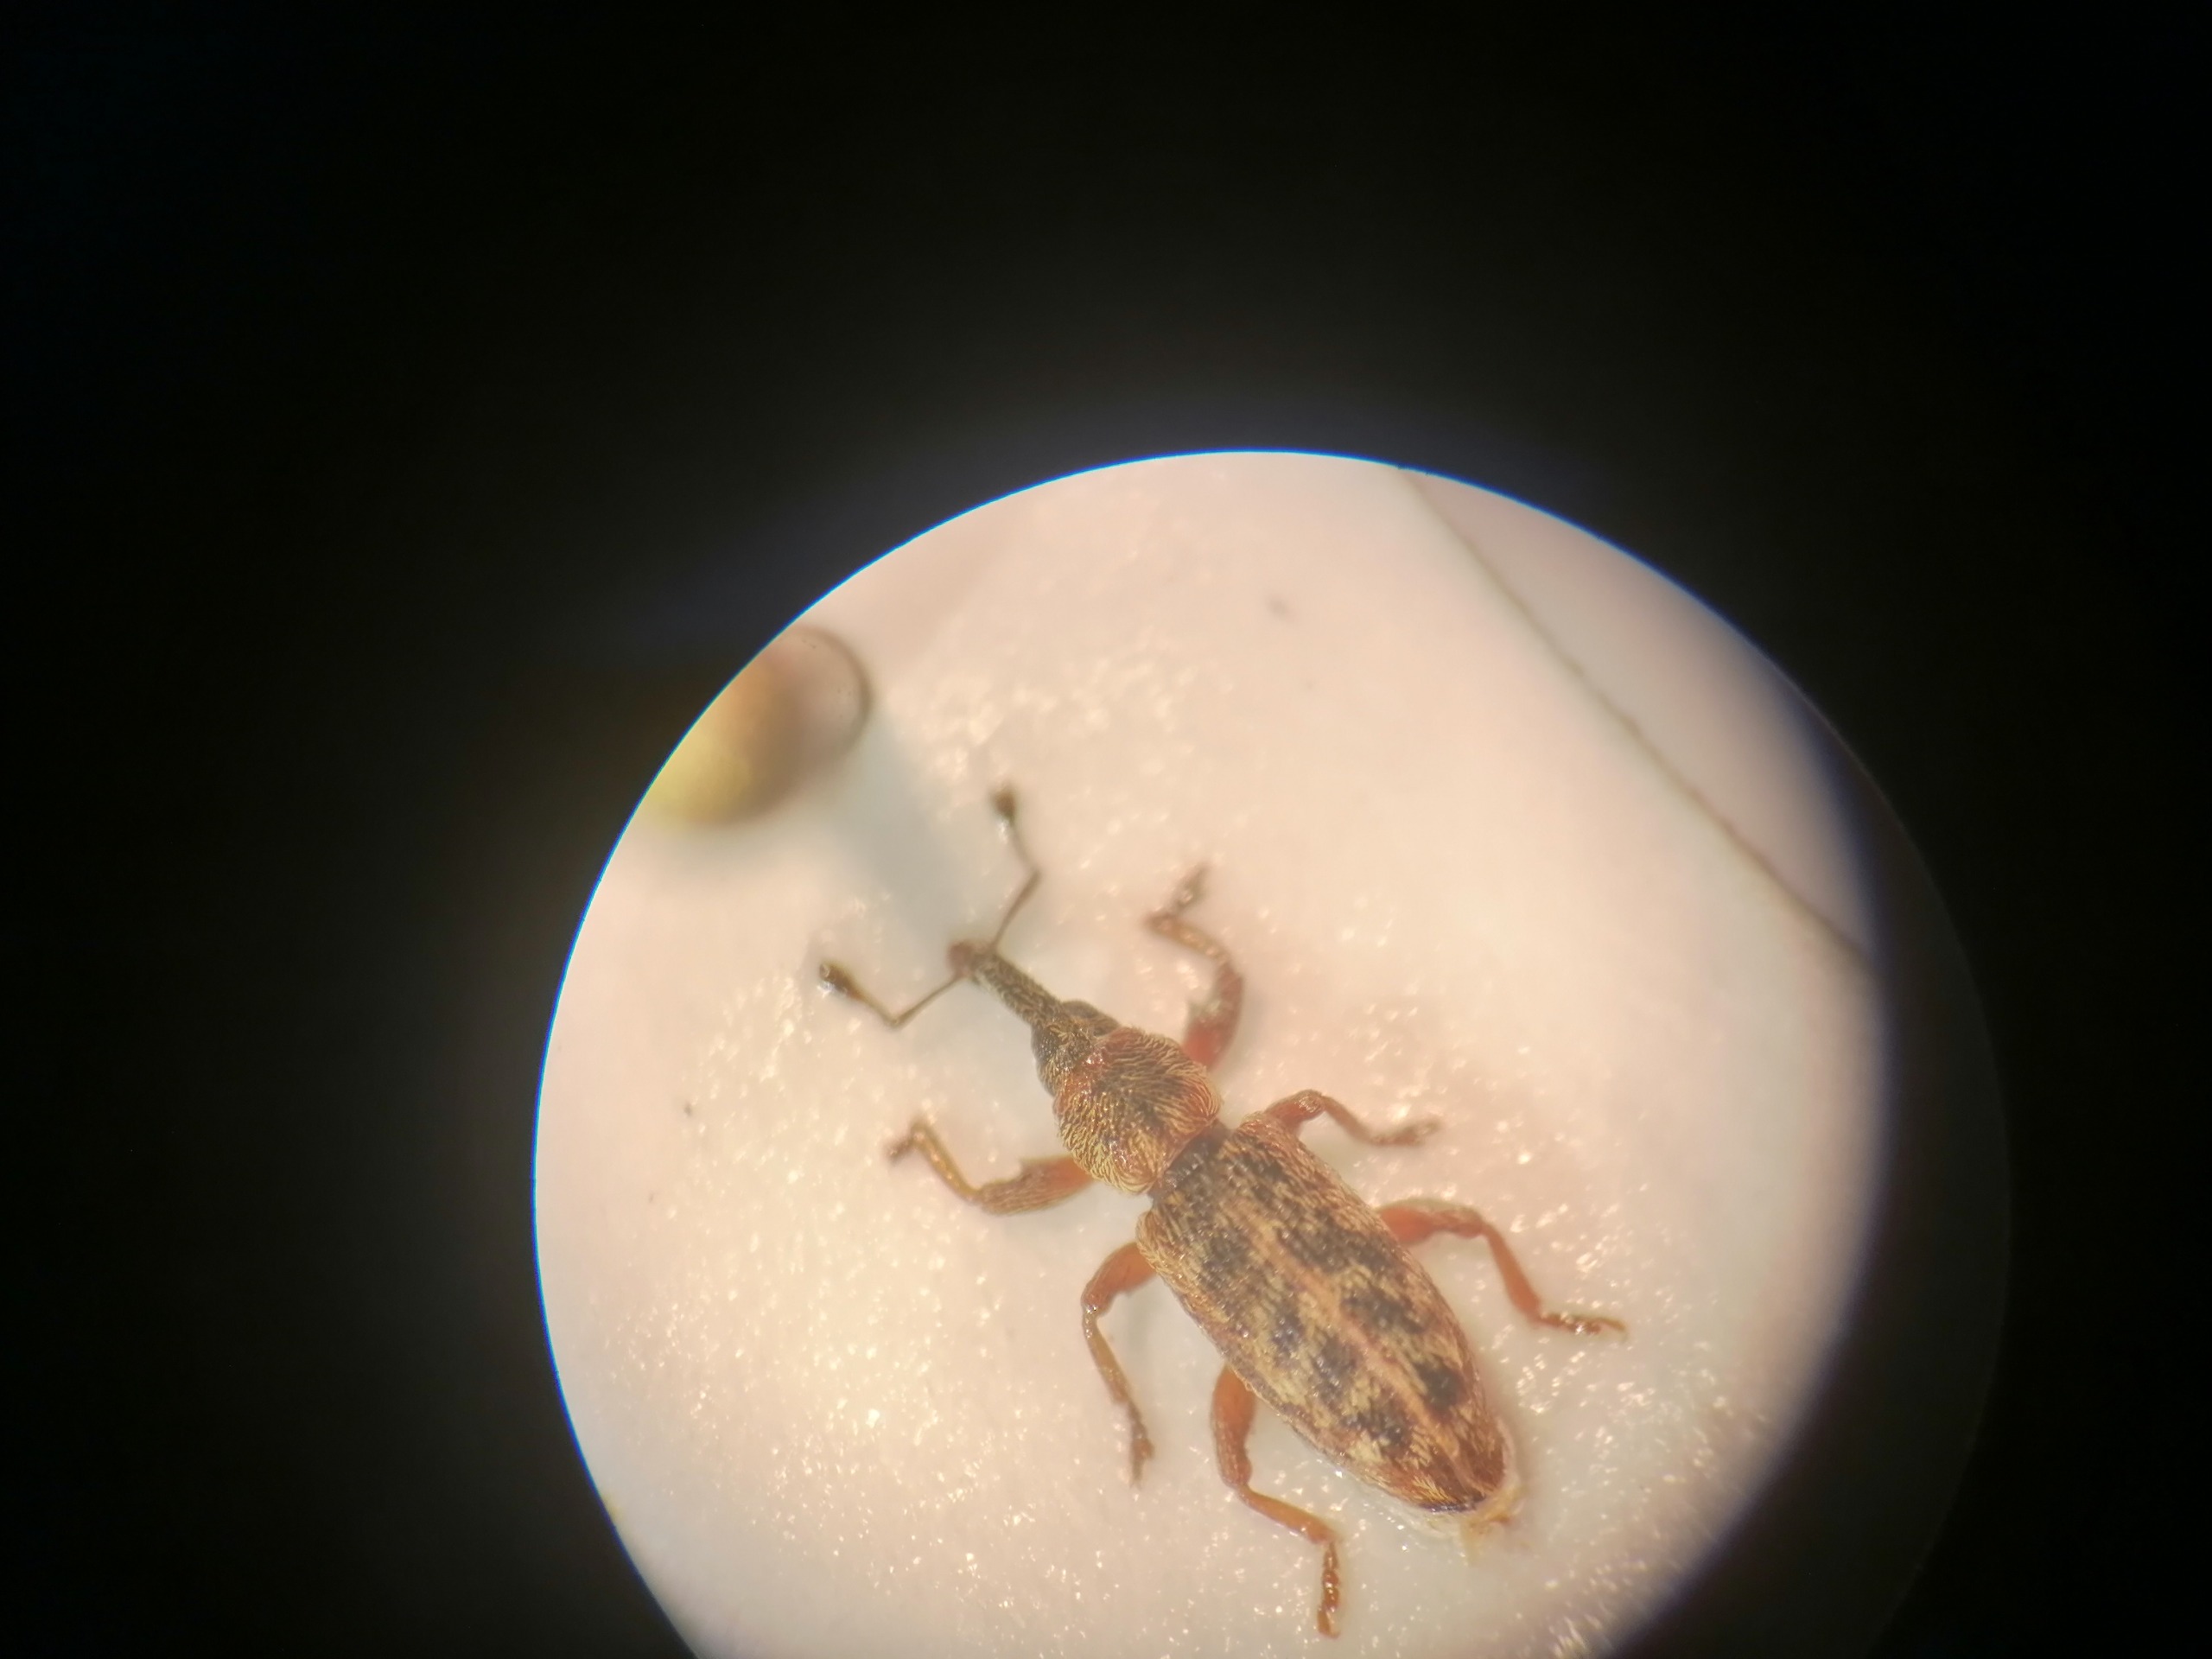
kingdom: Animalia
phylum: Arthropoda
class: Insecta
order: Coleoptera
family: Curculionidae
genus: Rhynchaenus
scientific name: Rhynchaenus salicinus
